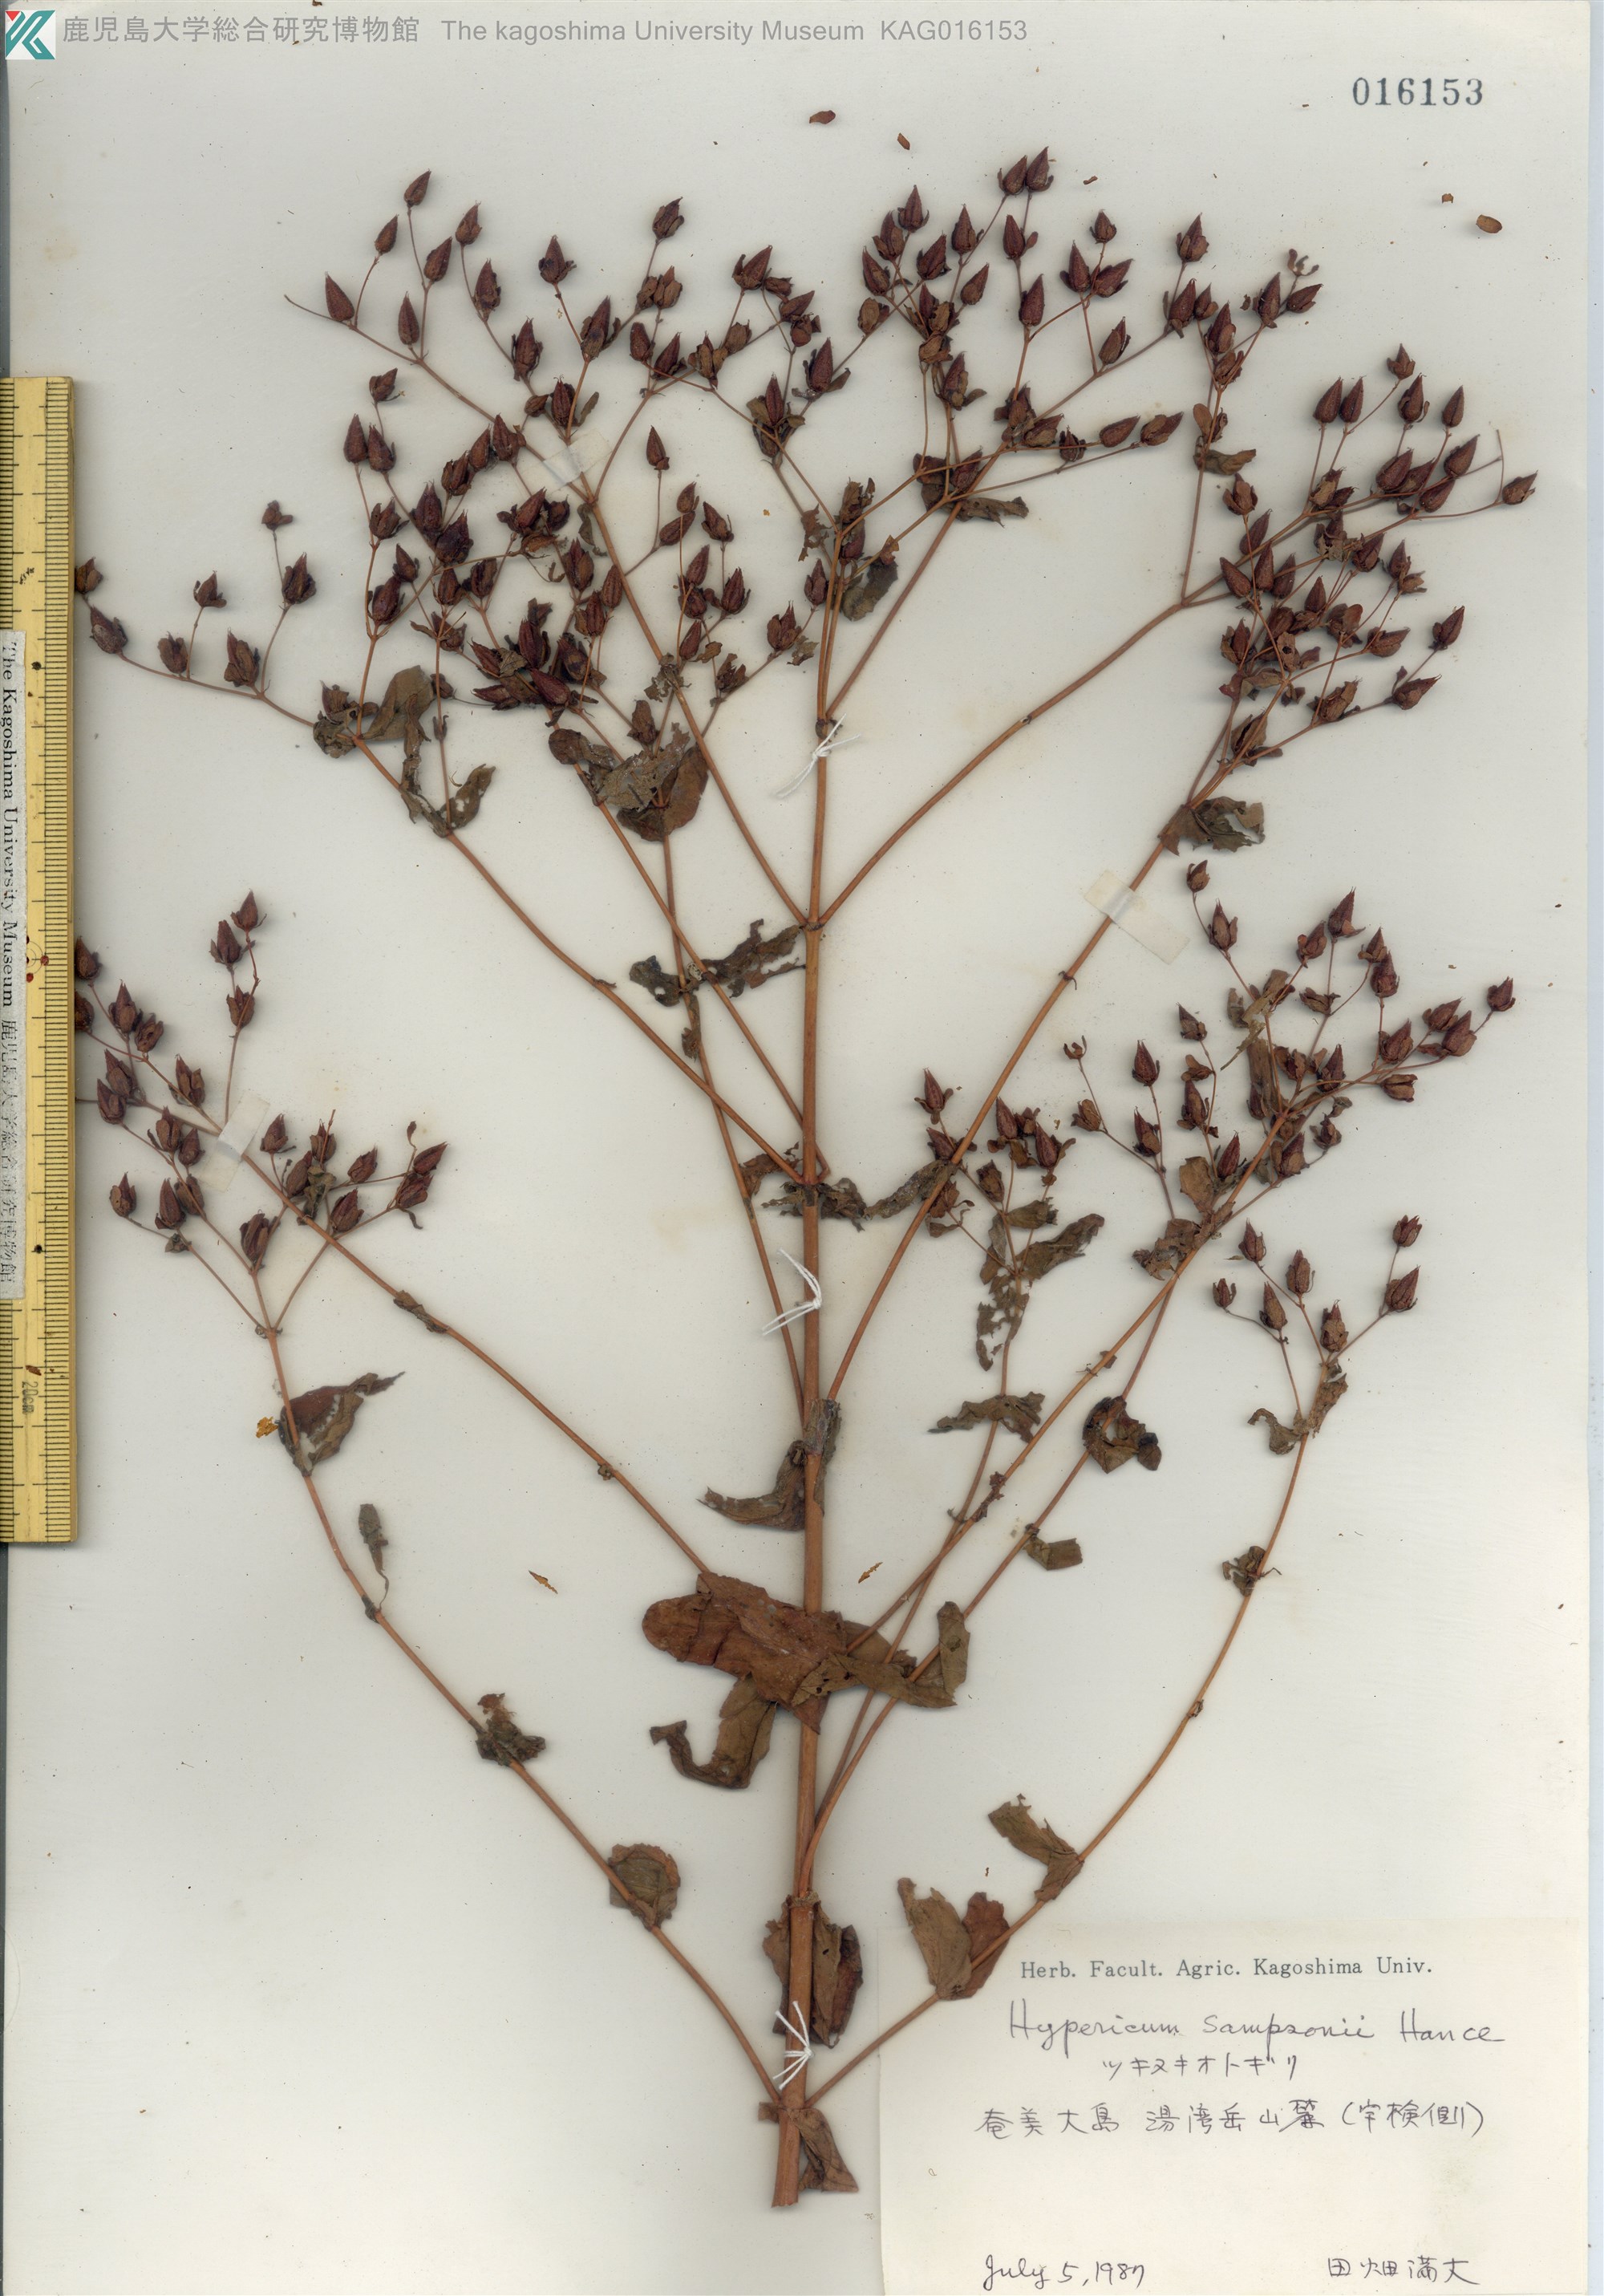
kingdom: Plantae
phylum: Tracheophyta
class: Magnoliopsida
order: Malpighiales
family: Hypericaceae
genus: Hypericum
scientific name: Hypericum sampsonii
